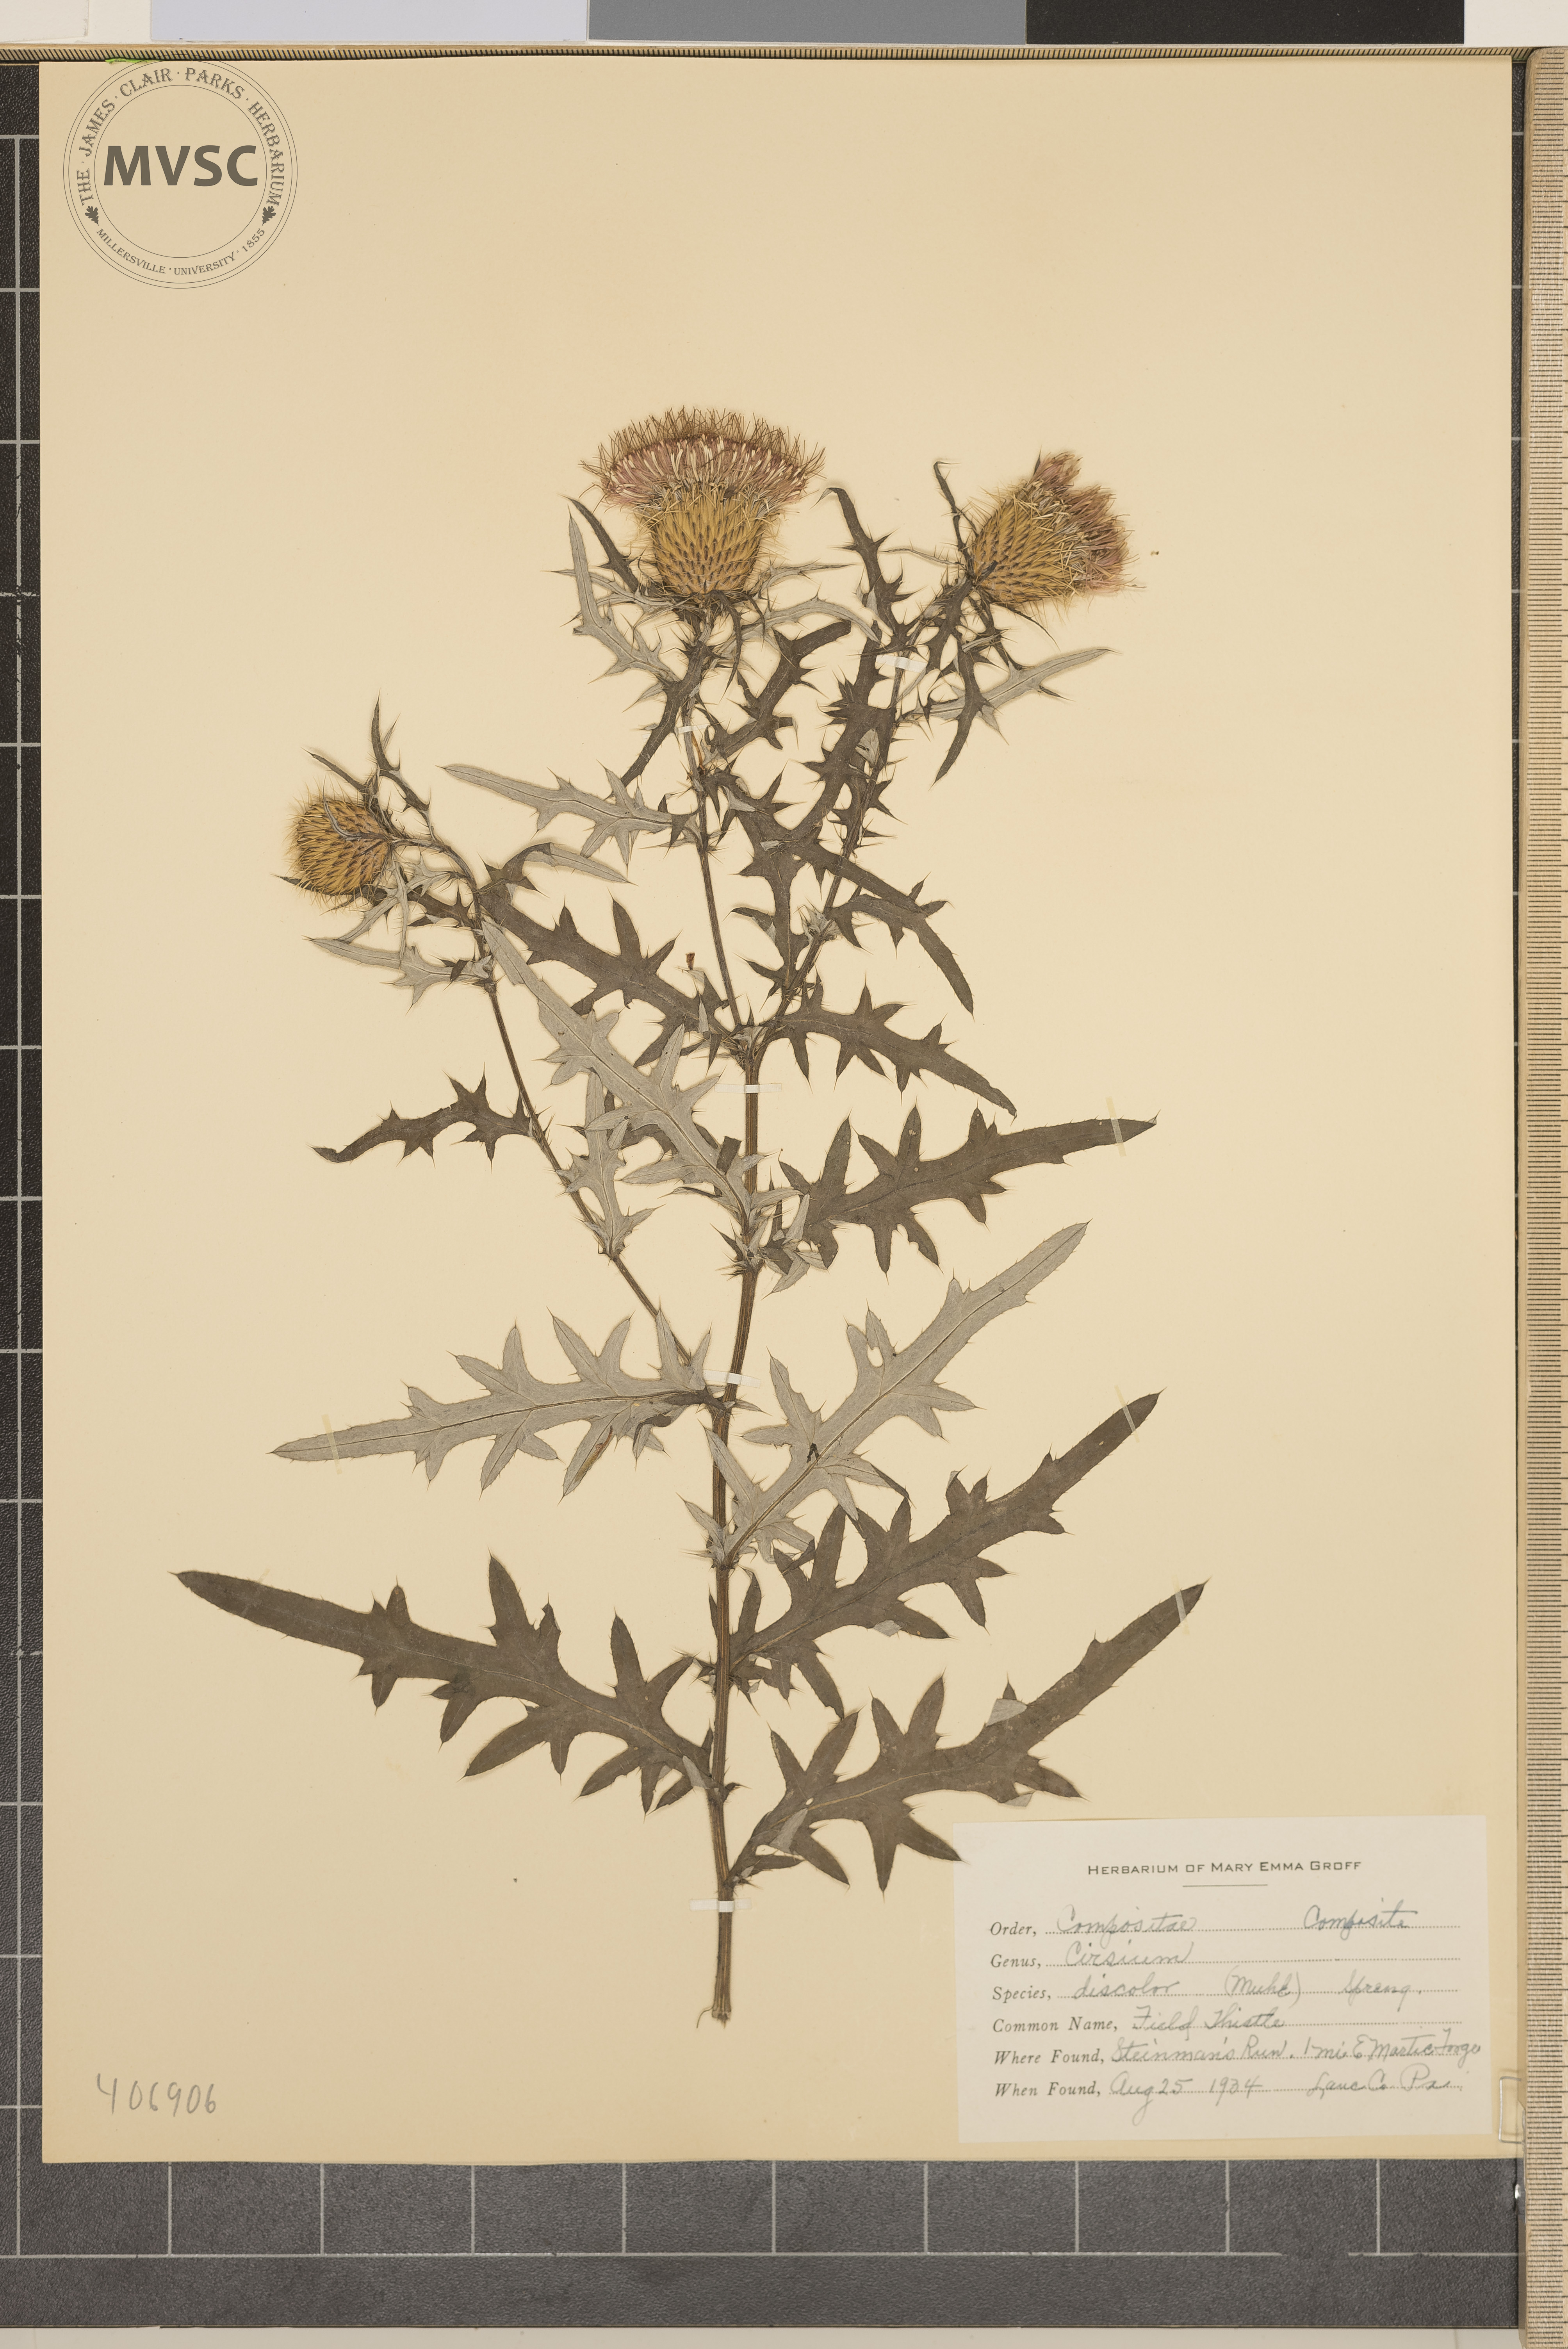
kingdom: Plantae
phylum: Tracheophyta
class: Magnoliopsida
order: Asterales
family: Asteraceae
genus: Cirsium
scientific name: Cirsium discolor
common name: Field Thistle
